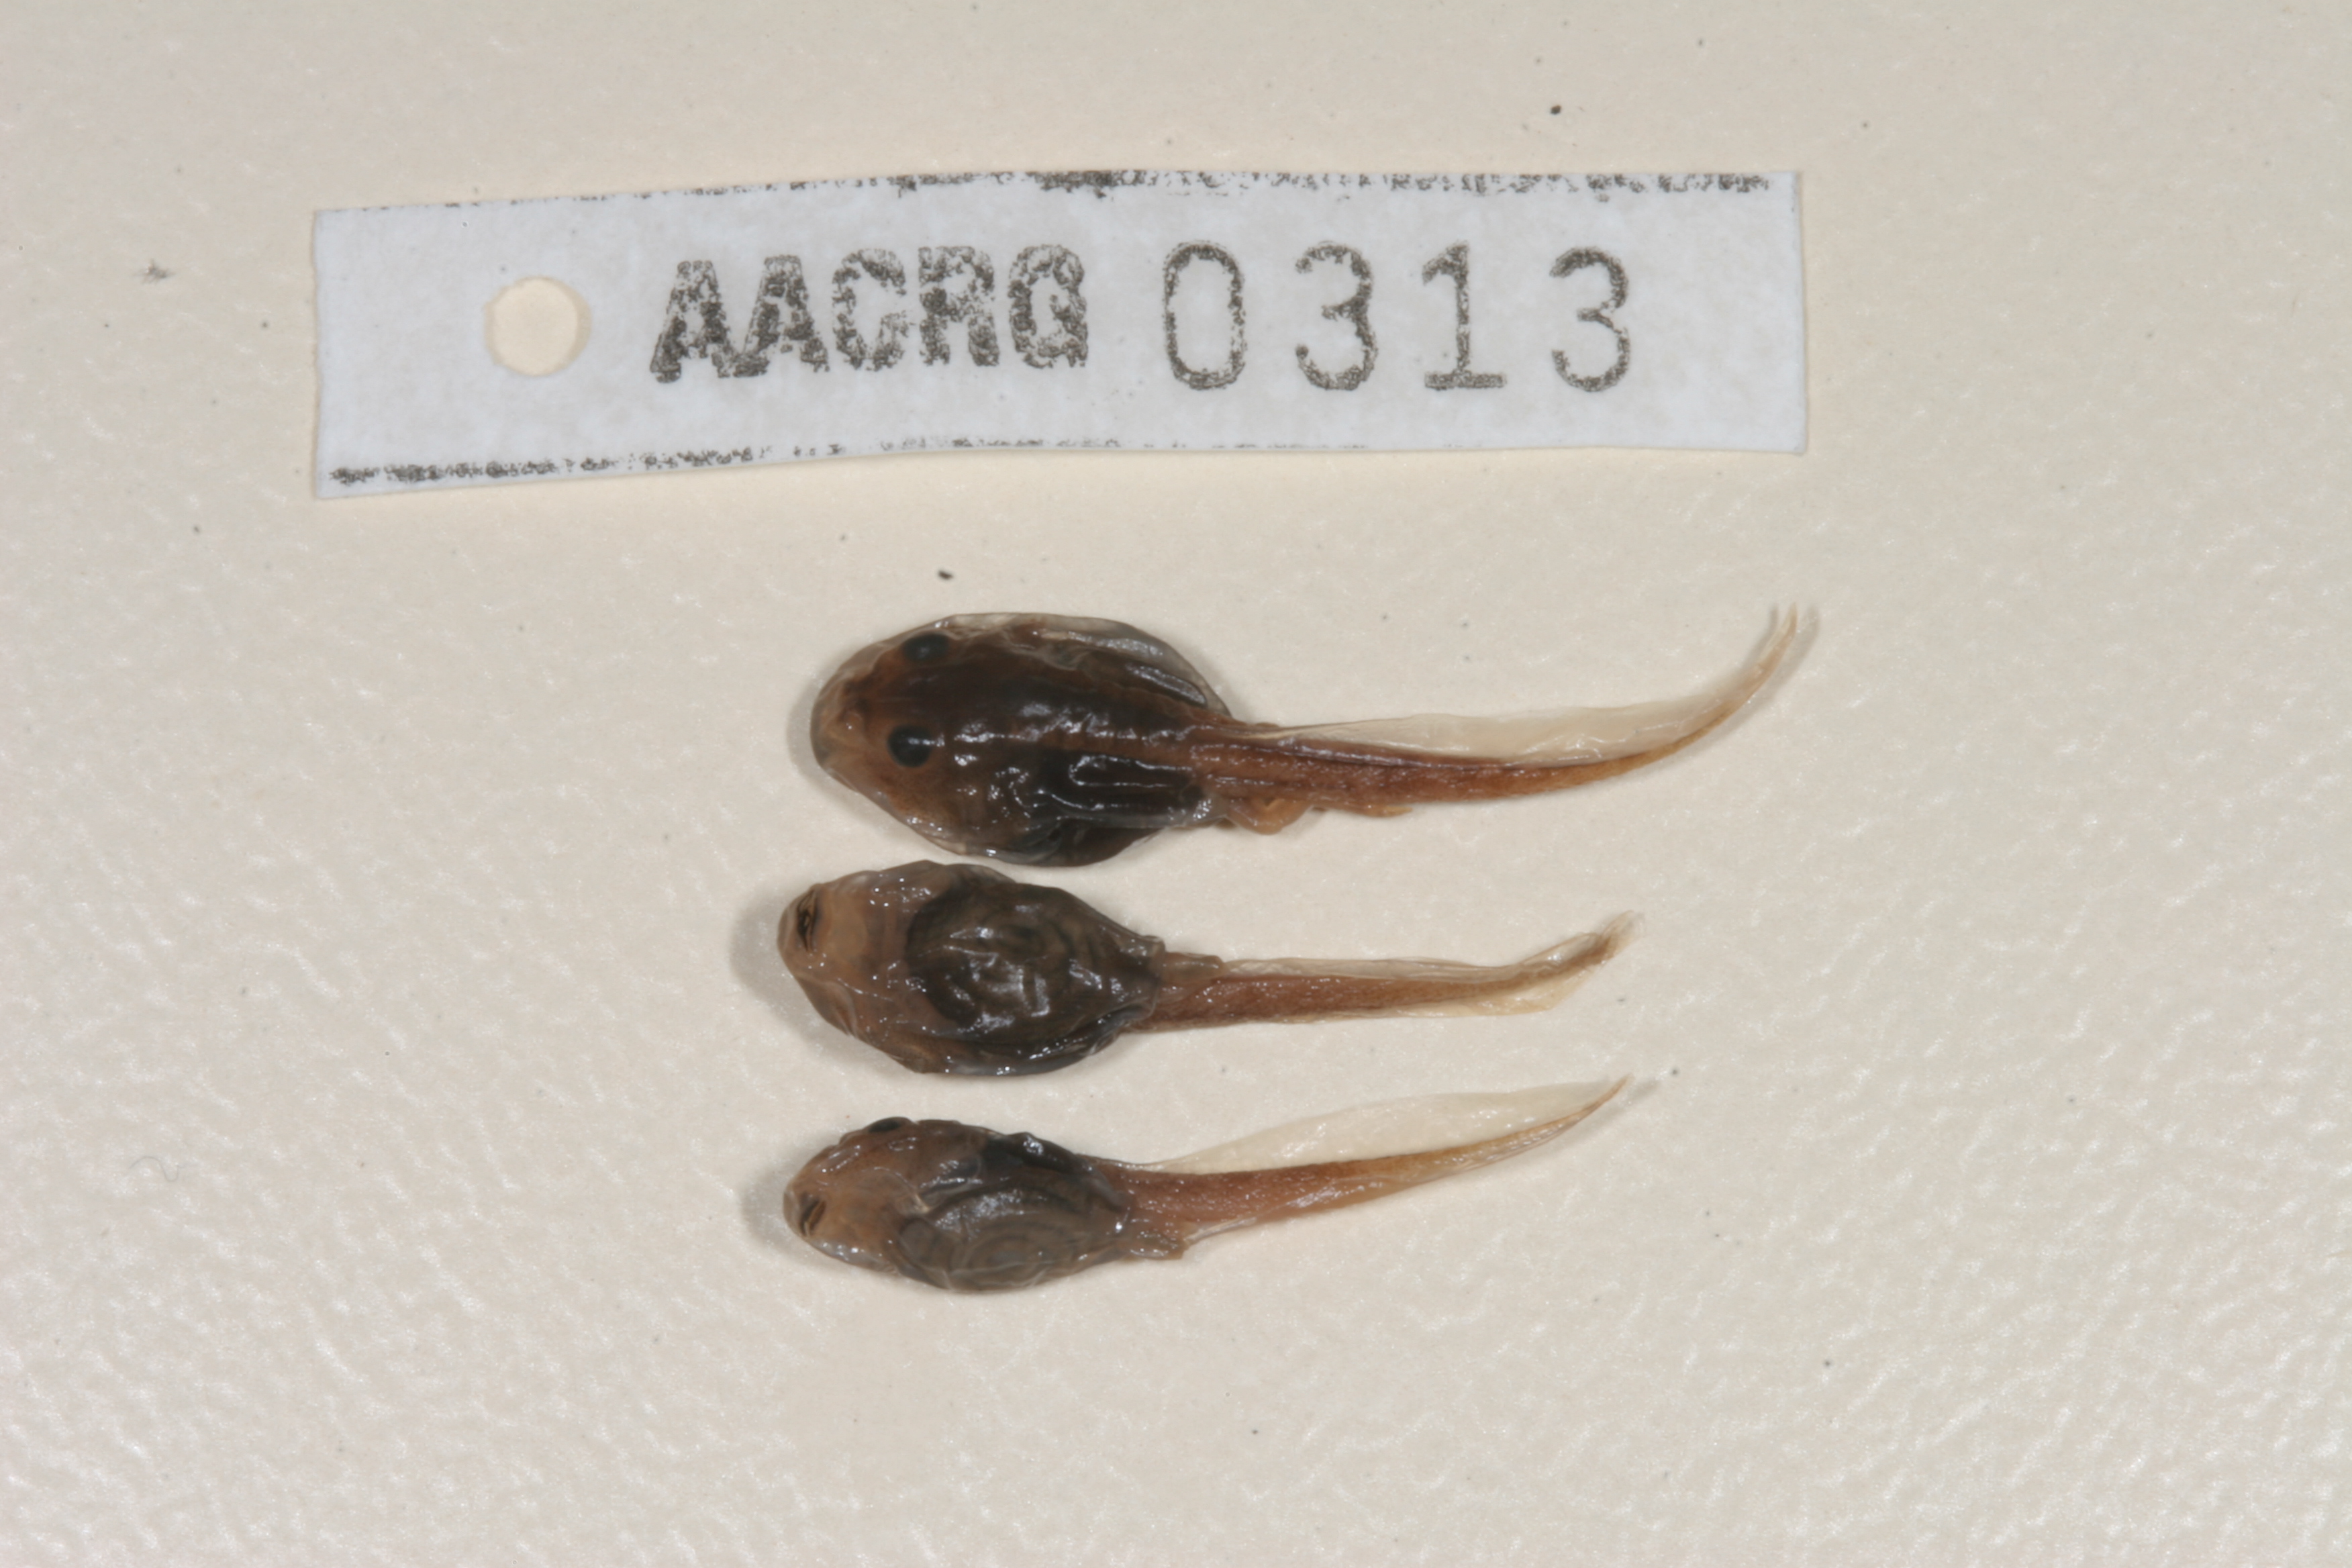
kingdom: Animalia
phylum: Chordata
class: Amphibia
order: Anura
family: Ptychadenidae
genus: Ptychadena
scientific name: Ptychadena mossambica
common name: Mozambique ridged frog
